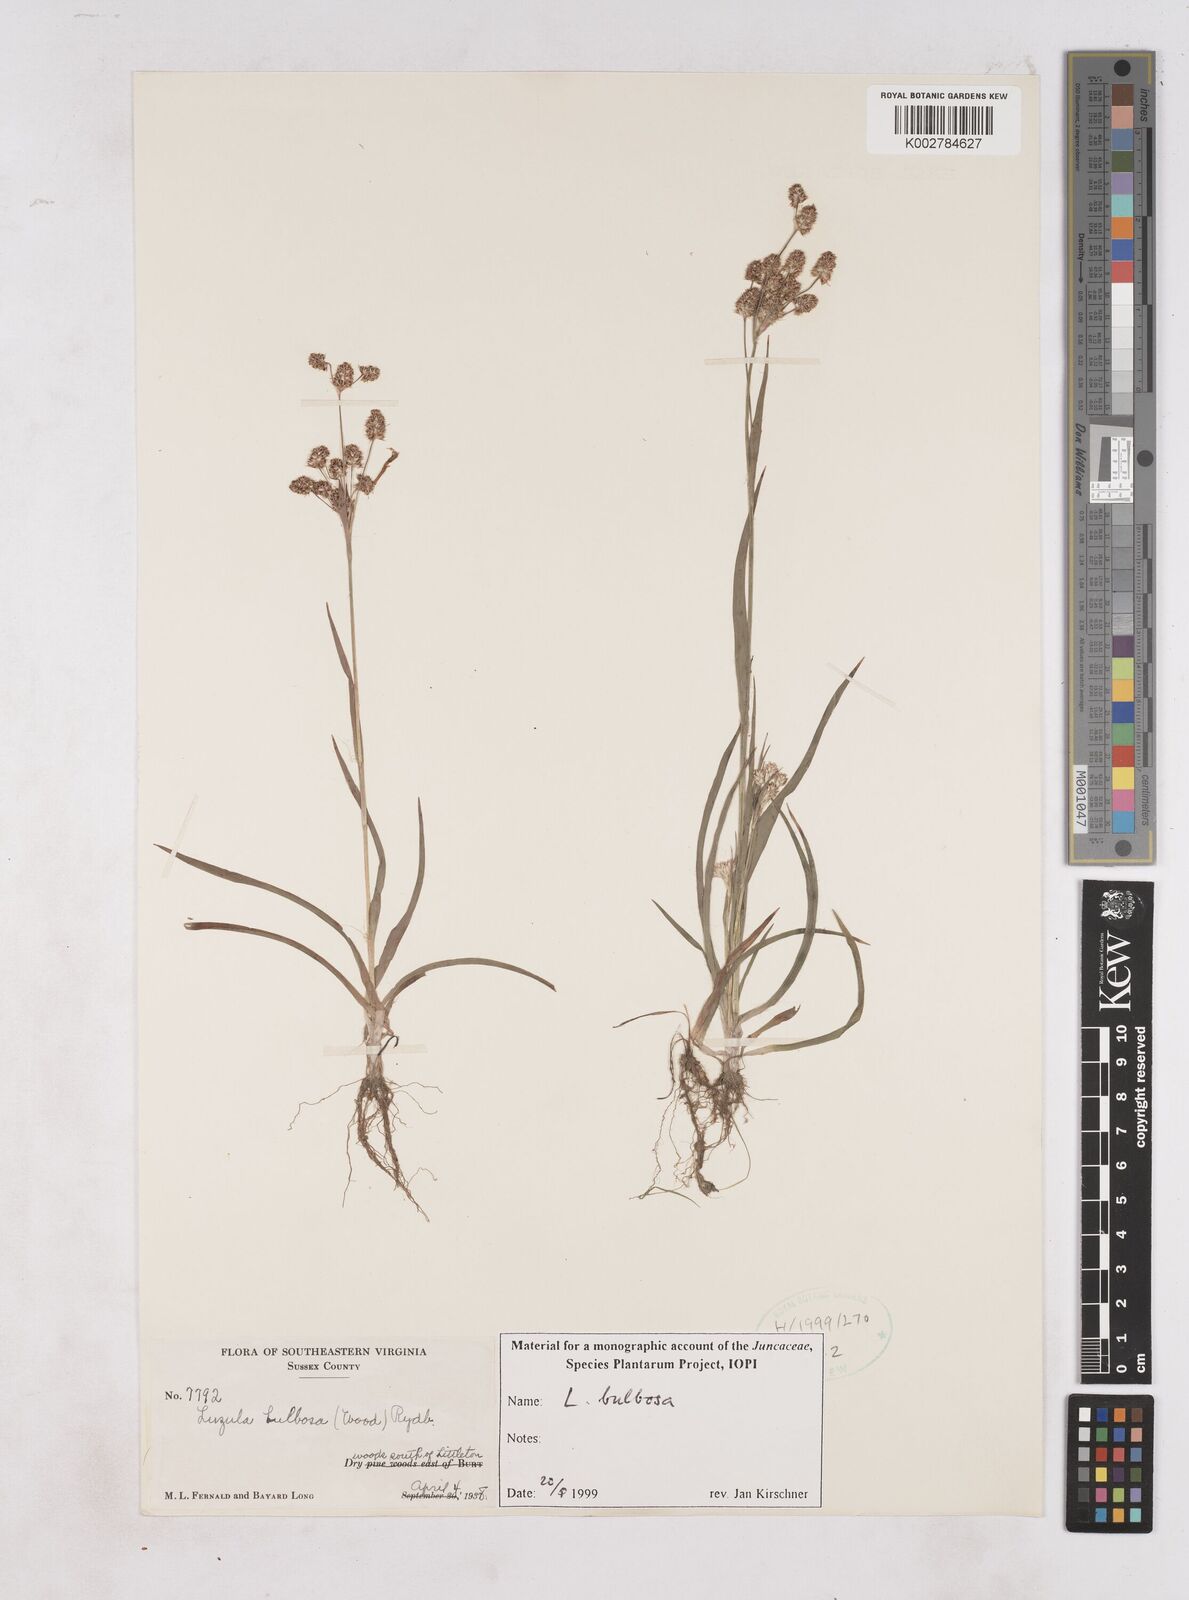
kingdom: Plantae
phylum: Tracheophyta
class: Liliopsida
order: Poales
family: Juncaceae
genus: Luzula
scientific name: Luzula bulbosa
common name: Bulbous woodrush
